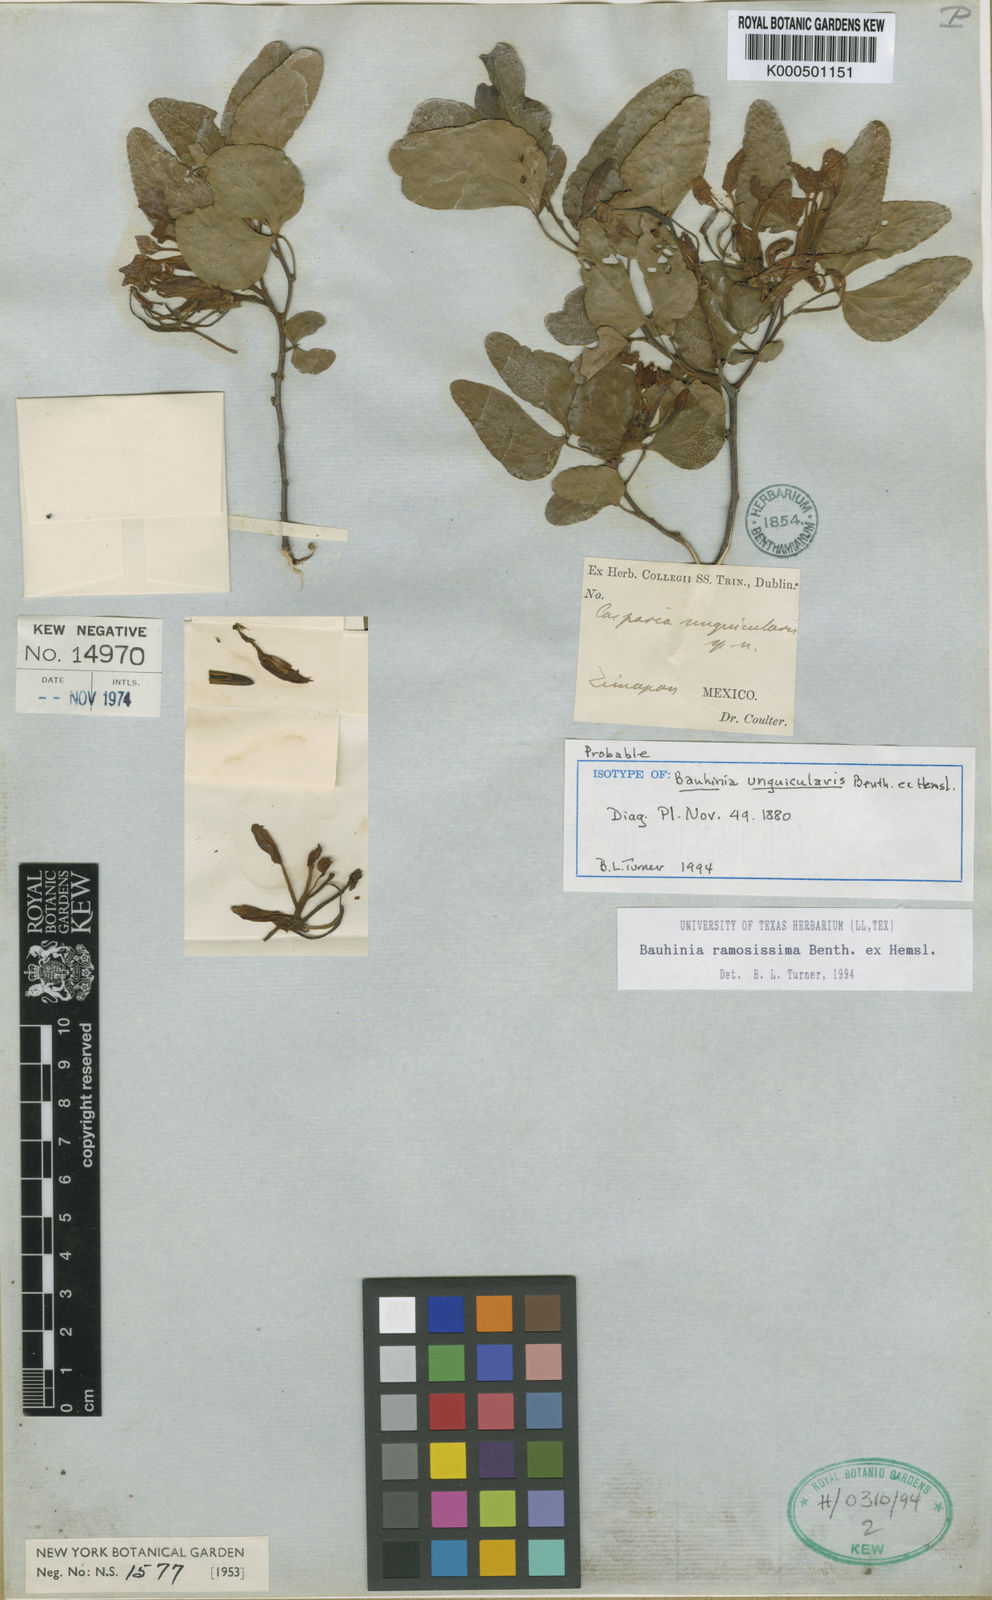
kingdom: Plantae
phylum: Tracheophyta
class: Magnoliopsida
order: Fabales
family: Fabaceae
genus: Bauhinia
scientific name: Bauhinia ramosissima
